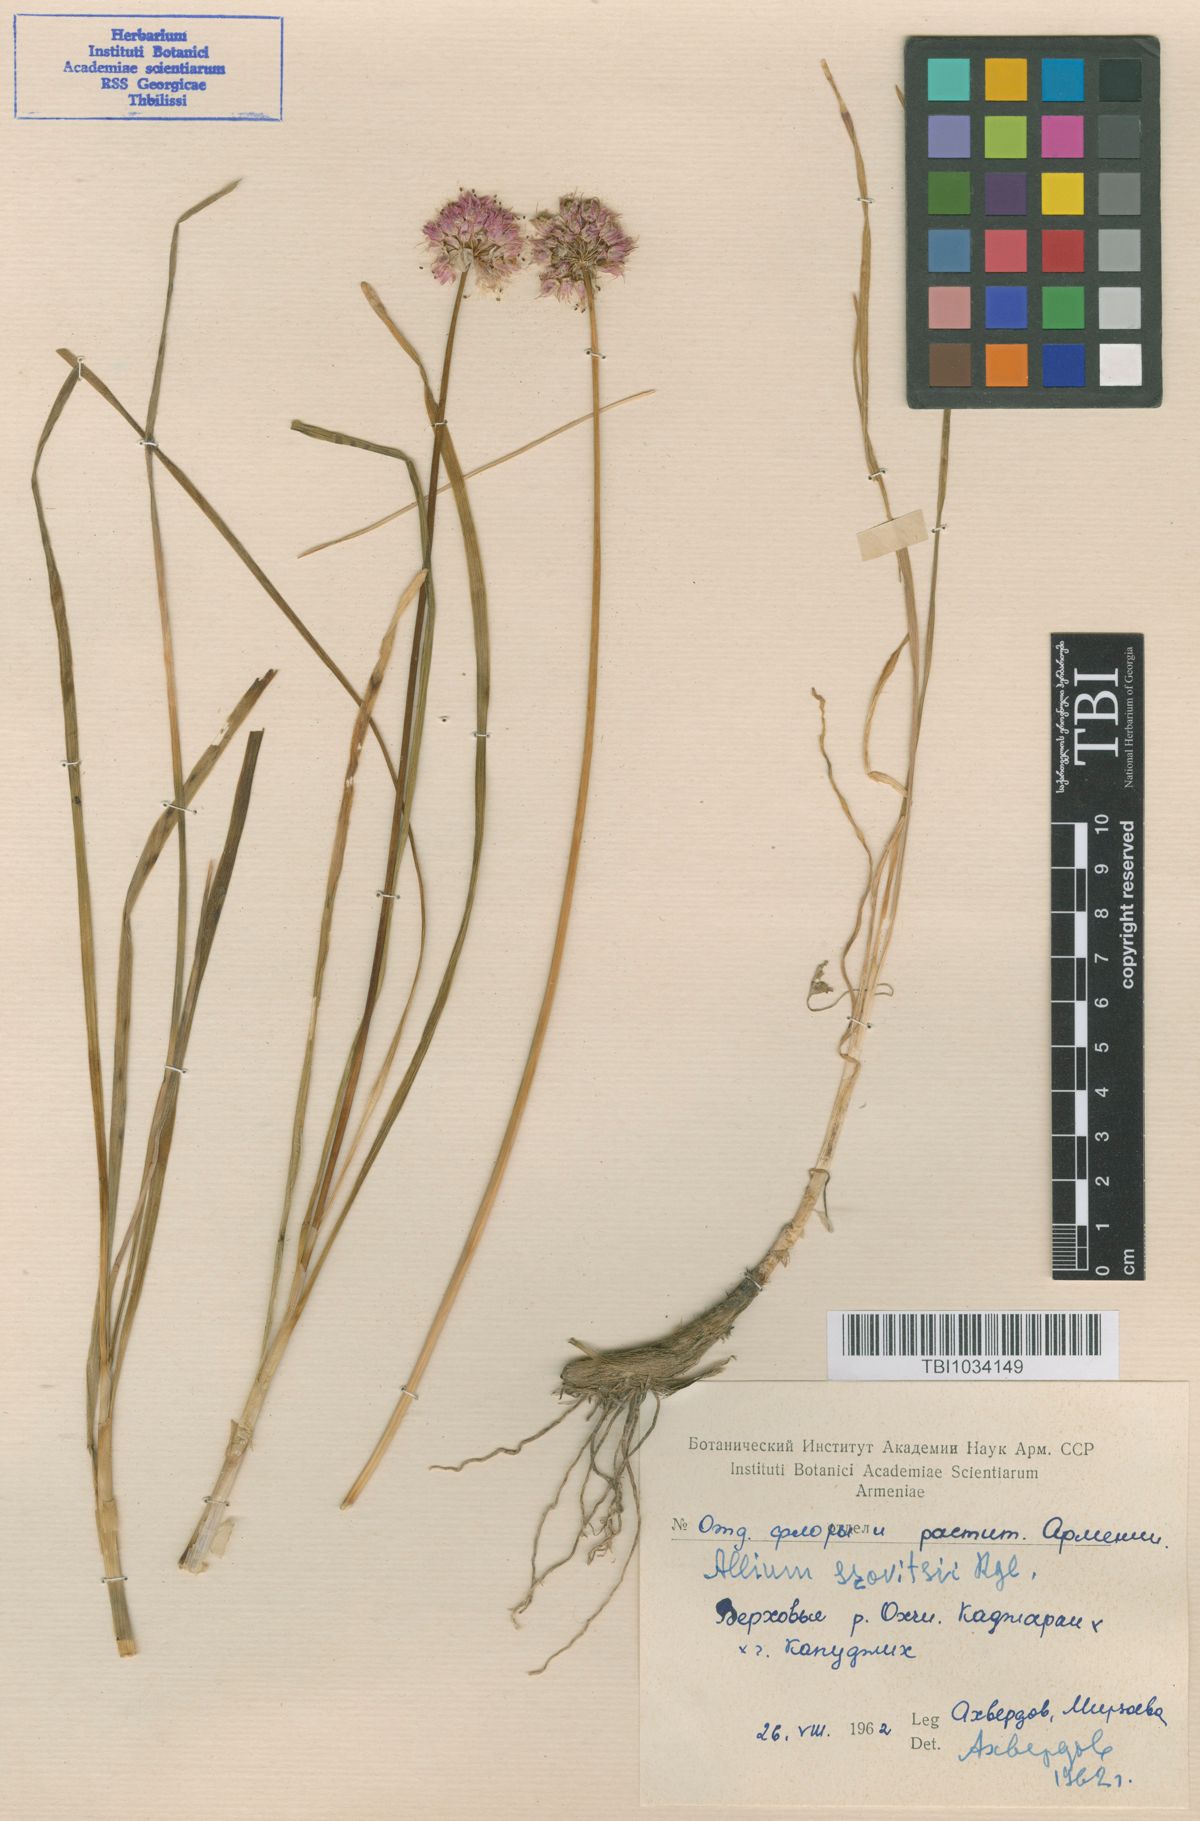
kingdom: Plantae
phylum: Tracheophyta
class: Liliopsida
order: Asparagales
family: Amaryllidaceae
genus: Allium
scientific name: Allium szovitsii
